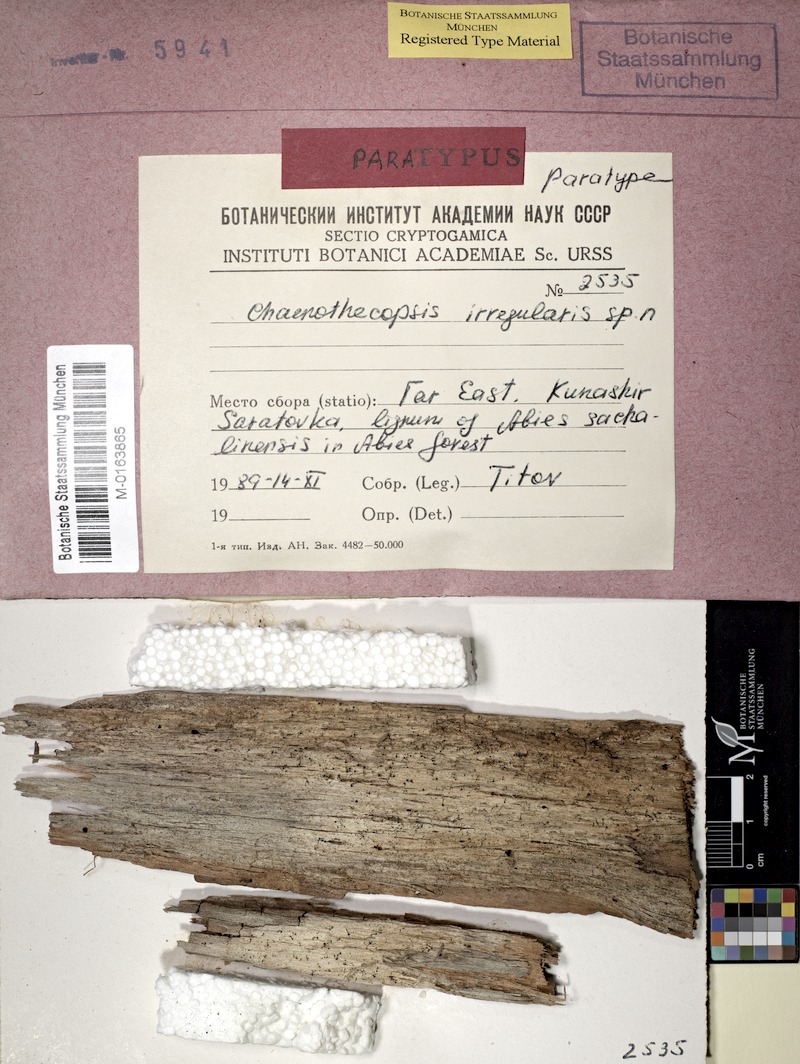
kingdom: Fungi
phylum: Ascomycota
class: Eurotiomycetes
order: Mycocaliciales
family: Mycocaliciaceae
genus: Chaenothecopsis
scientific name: Chaenothecopsis irregularis
